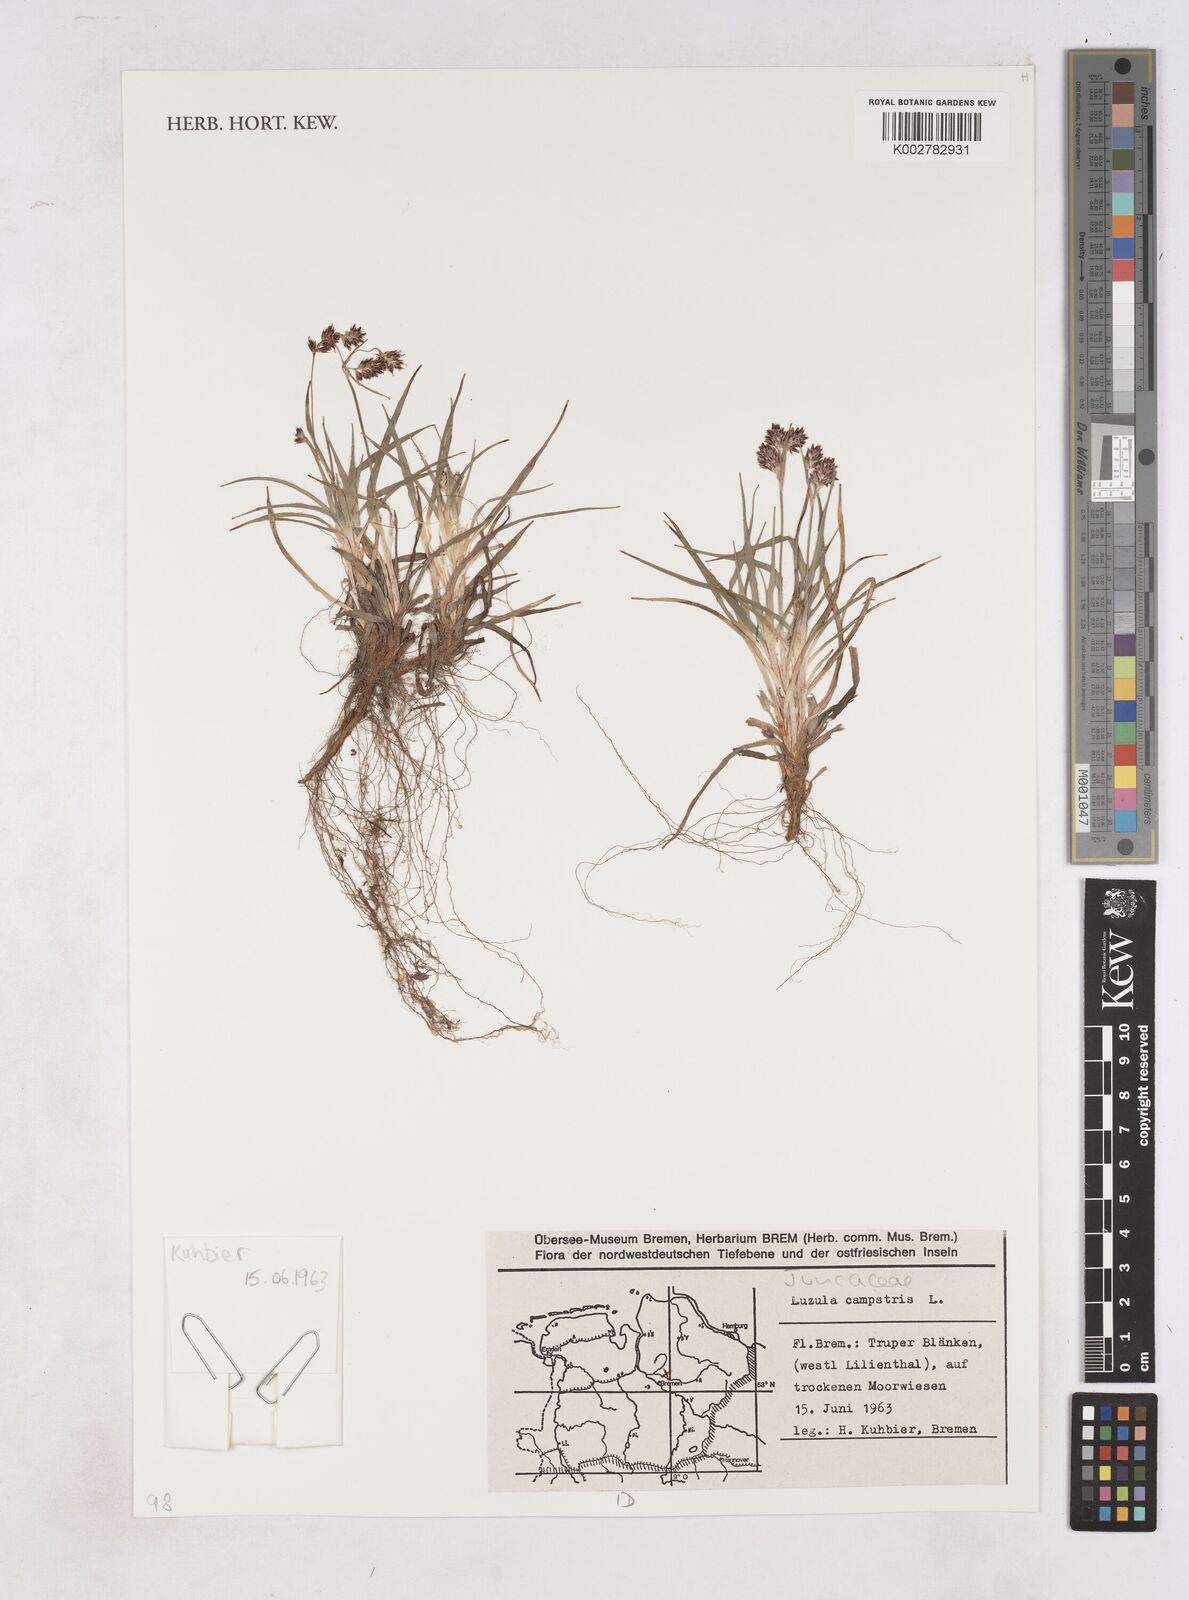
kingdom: Plantae
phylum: Tracheophyta
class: Liliopsida
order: Poales
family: Juncaceae
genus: Luzula
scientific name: Luzula campestris
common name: Field wood-rush
